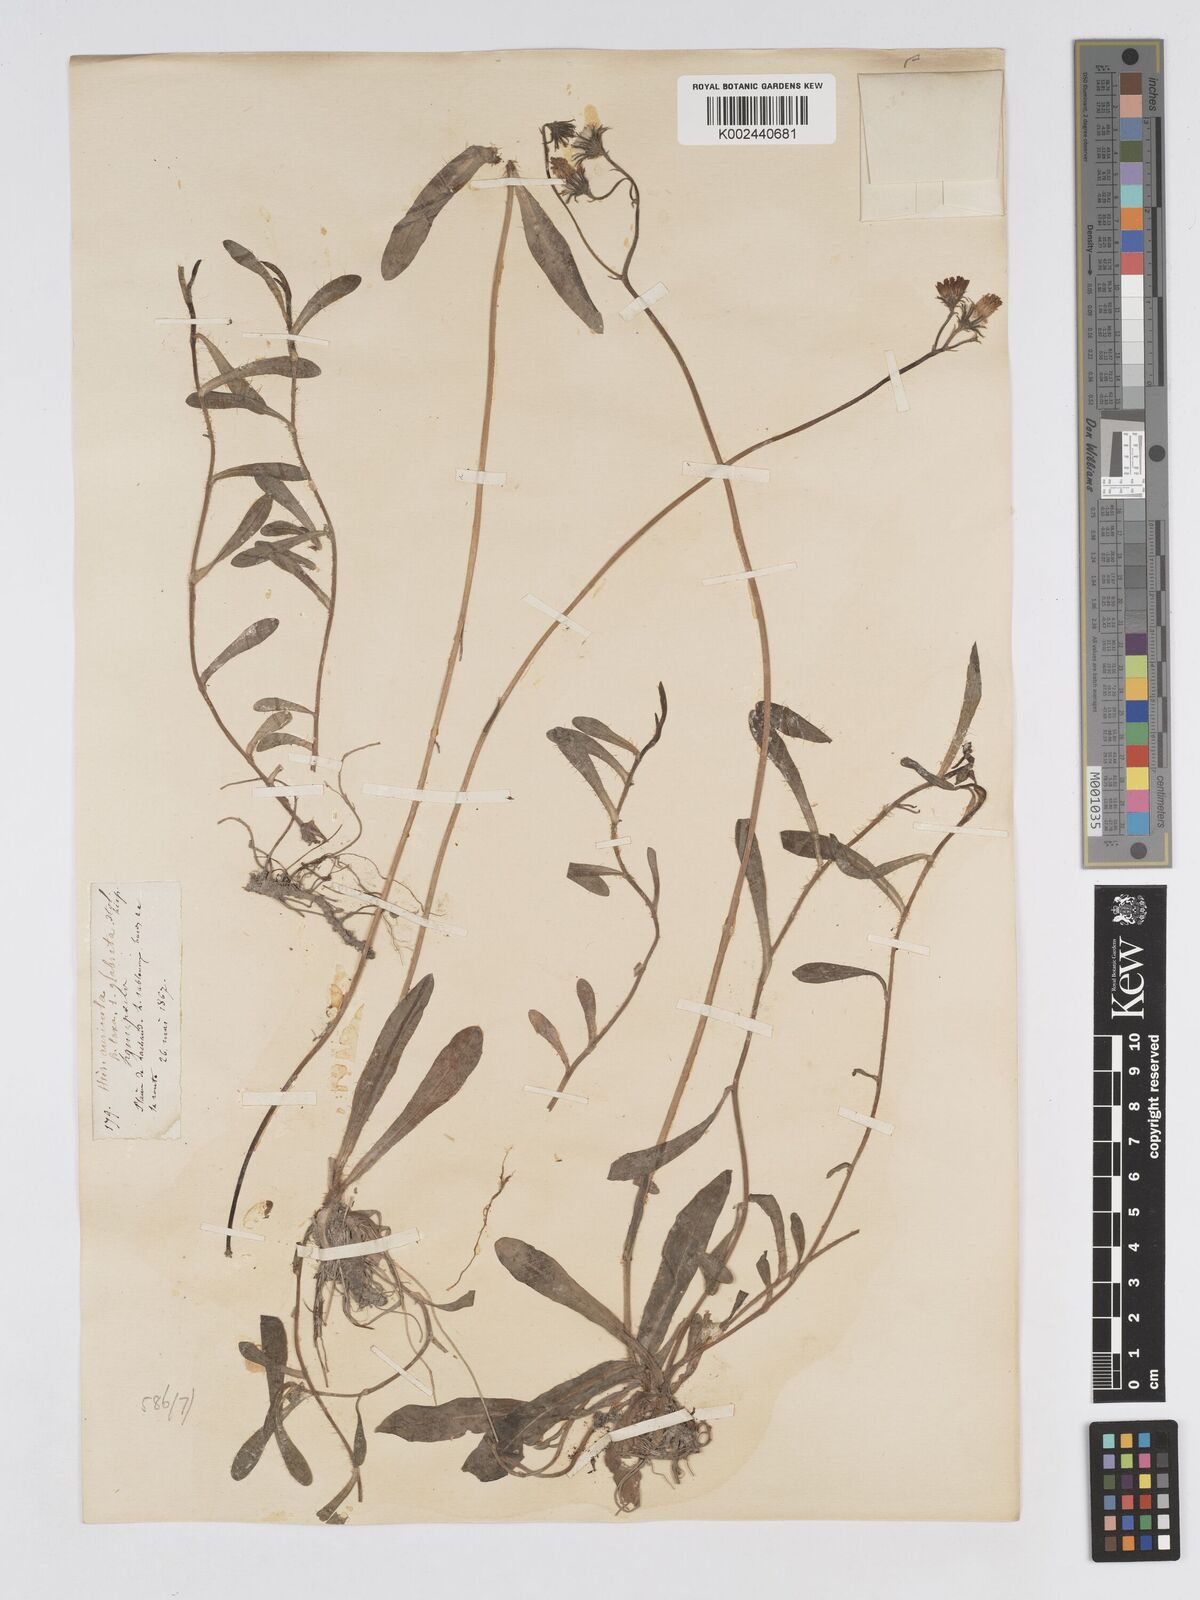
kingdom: Plantae
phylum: Tracheophyta
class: Magnoliopsida
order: Asterales
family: Asteraceae
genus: Pilosella
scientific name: Pilosella floribunda
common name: Glaucous hawkweed
